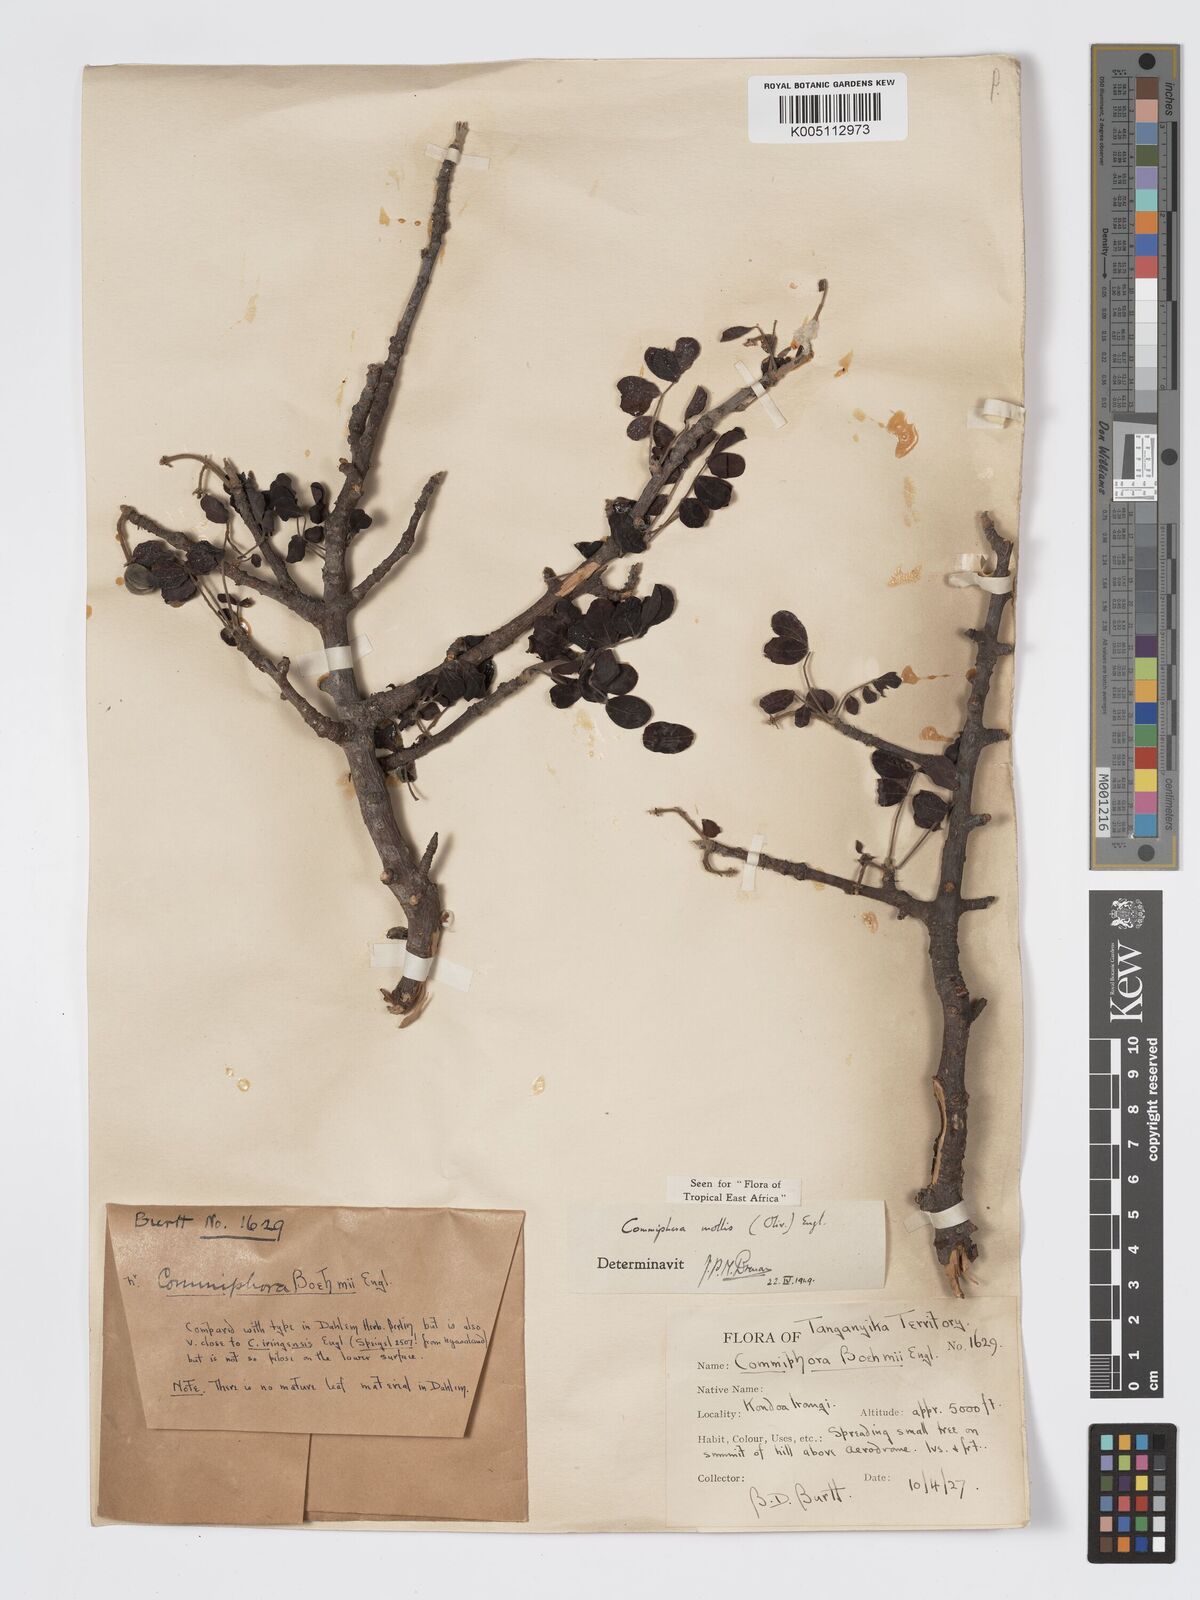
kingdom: Plantae
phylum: Tracheophyta
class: Magnoliopsida
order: Sapindales
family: Burseraceae
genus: Commiphora
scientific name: Commiphora
